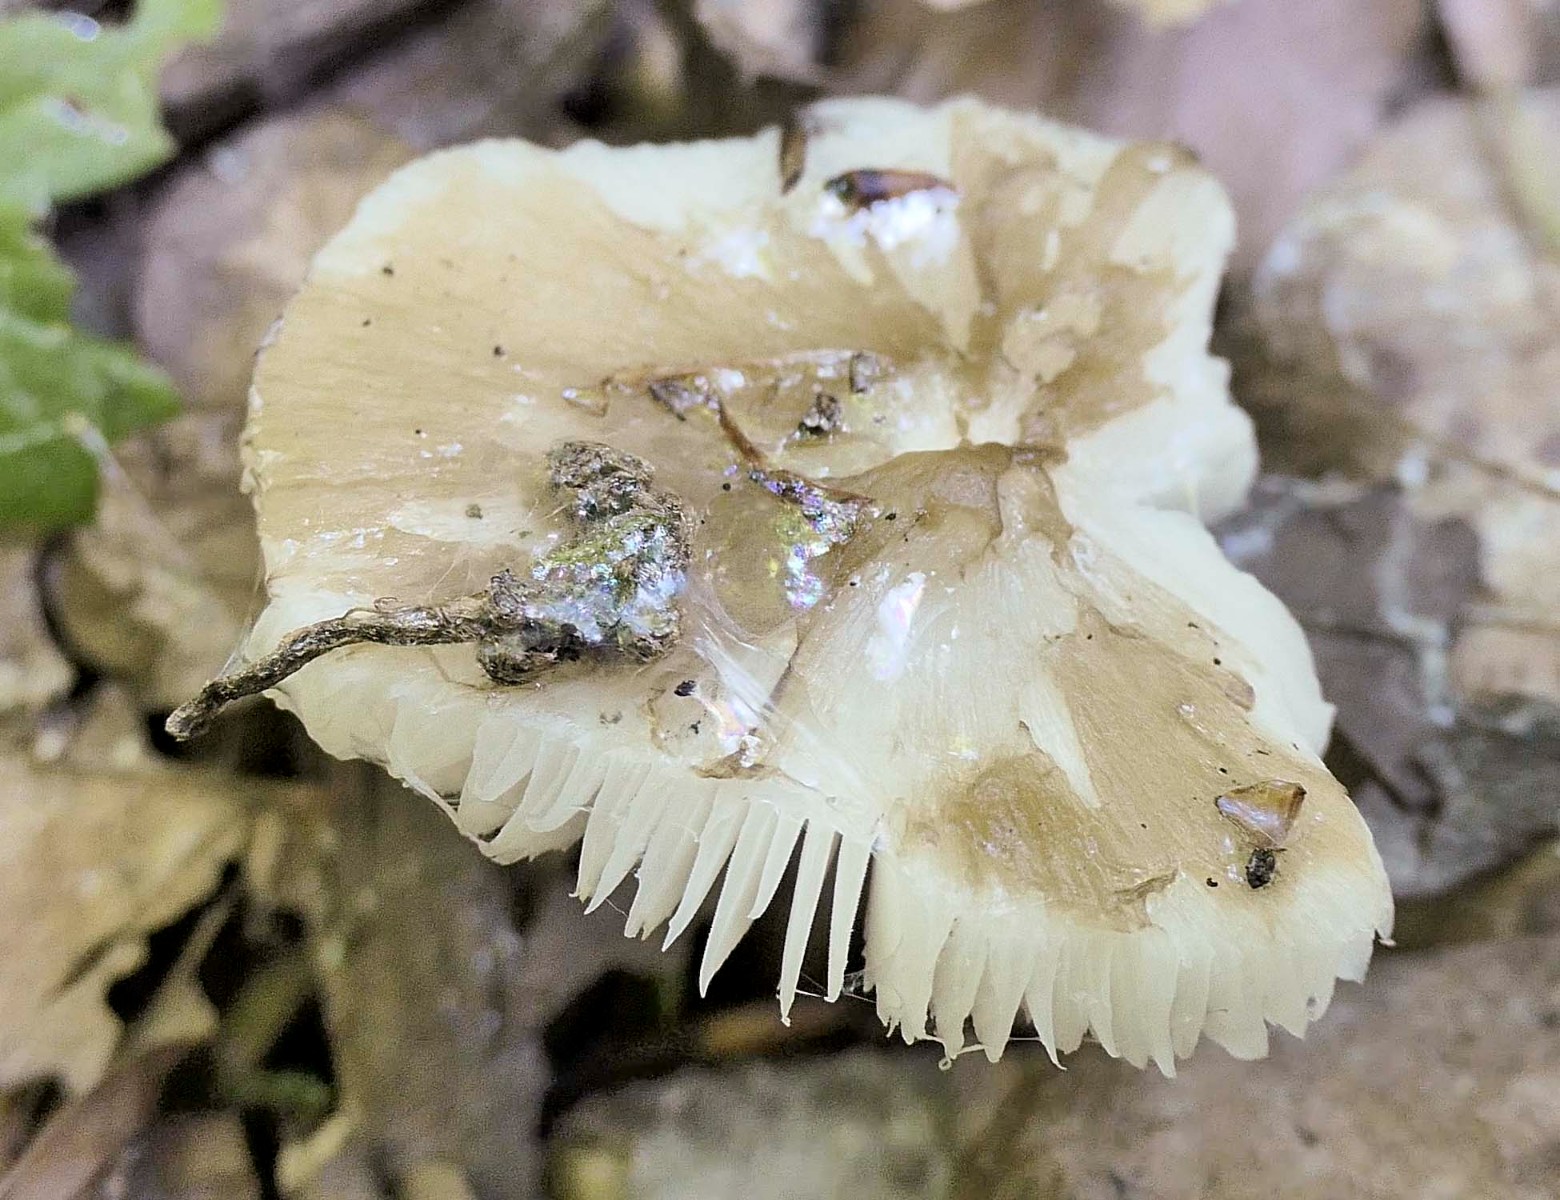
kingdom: Fungi
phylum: Basidiomycota
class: Agaricomycetes
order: Agaricales
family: Porotheleaceae
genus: Hydropodia
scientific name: Hydropodia subalpina
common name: vår-fnugfod
